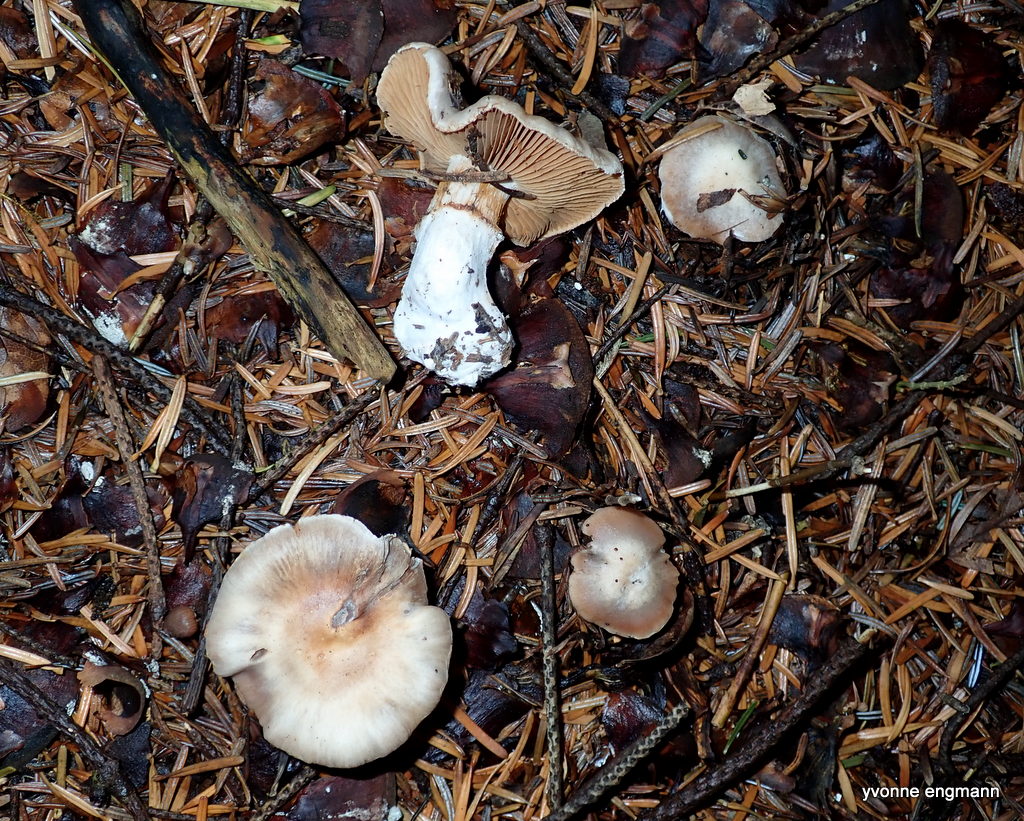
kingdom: Fungi
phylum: Basidiomycota
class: Agaricomycetes
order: Agaricales
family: Cortinariaceae
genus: Cortinarius
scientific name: Cortinarius
